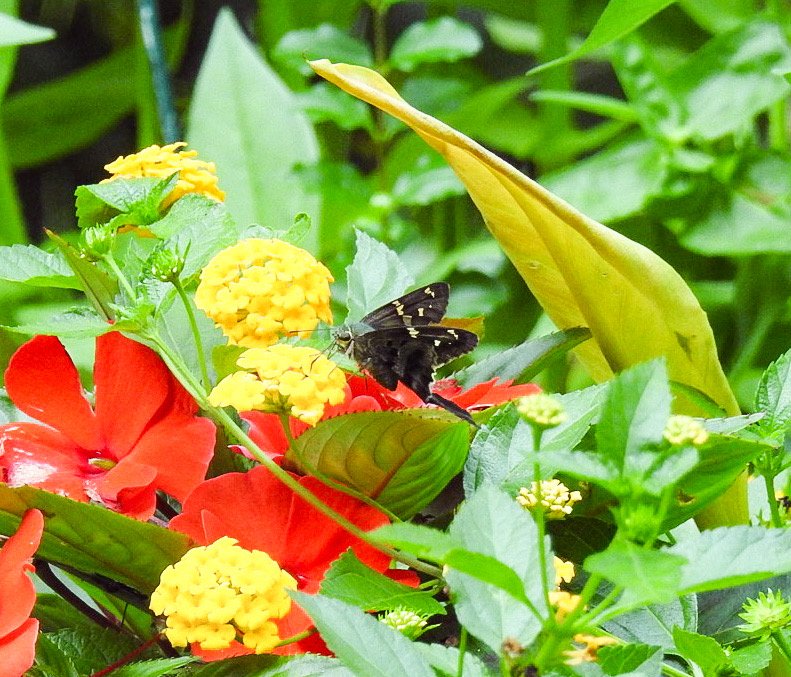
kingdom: Animalia
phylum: Arthropoda
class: Insecta
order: Lepidoptera
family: Hesperiidae
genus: Urbanus
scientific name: Urbanus proteus
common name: Long-tailed Skipper
